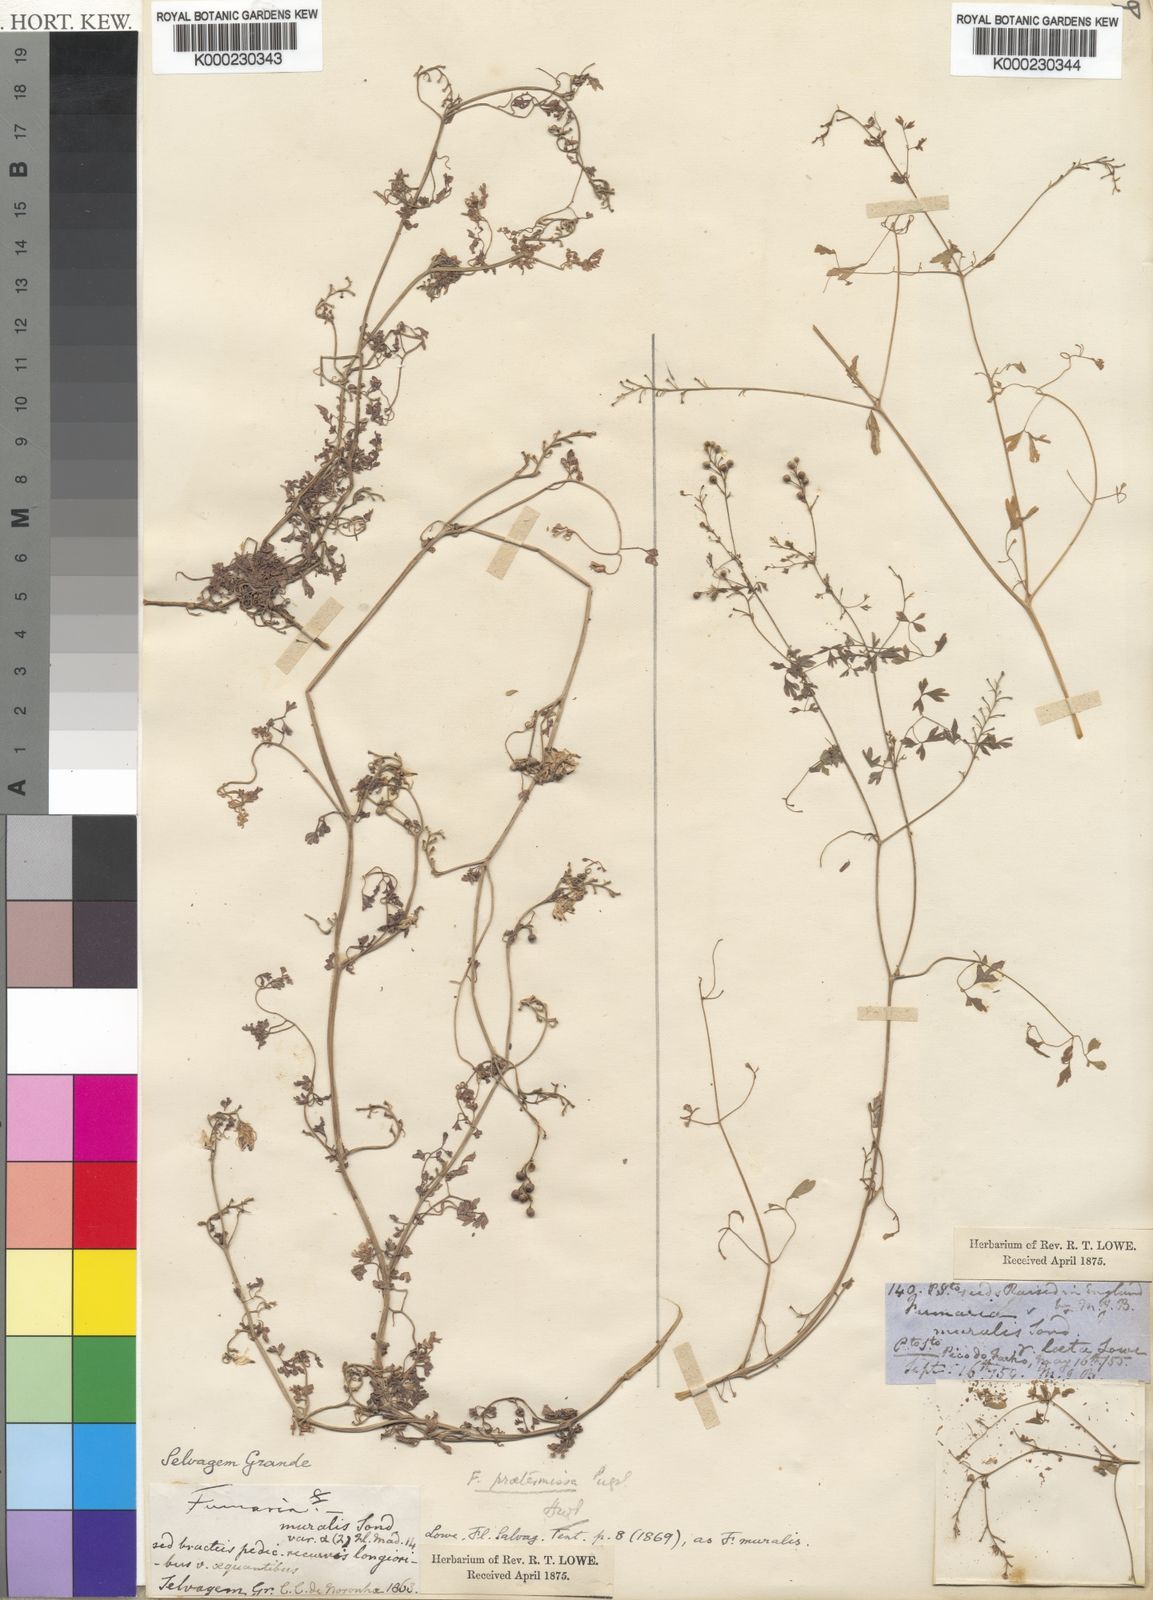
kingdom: Plantae
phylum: Tracheophyta
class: Magnoliopsida
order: Ranunculales
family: Papaveraceae
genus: Fumaria
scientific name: Fumaria montana
